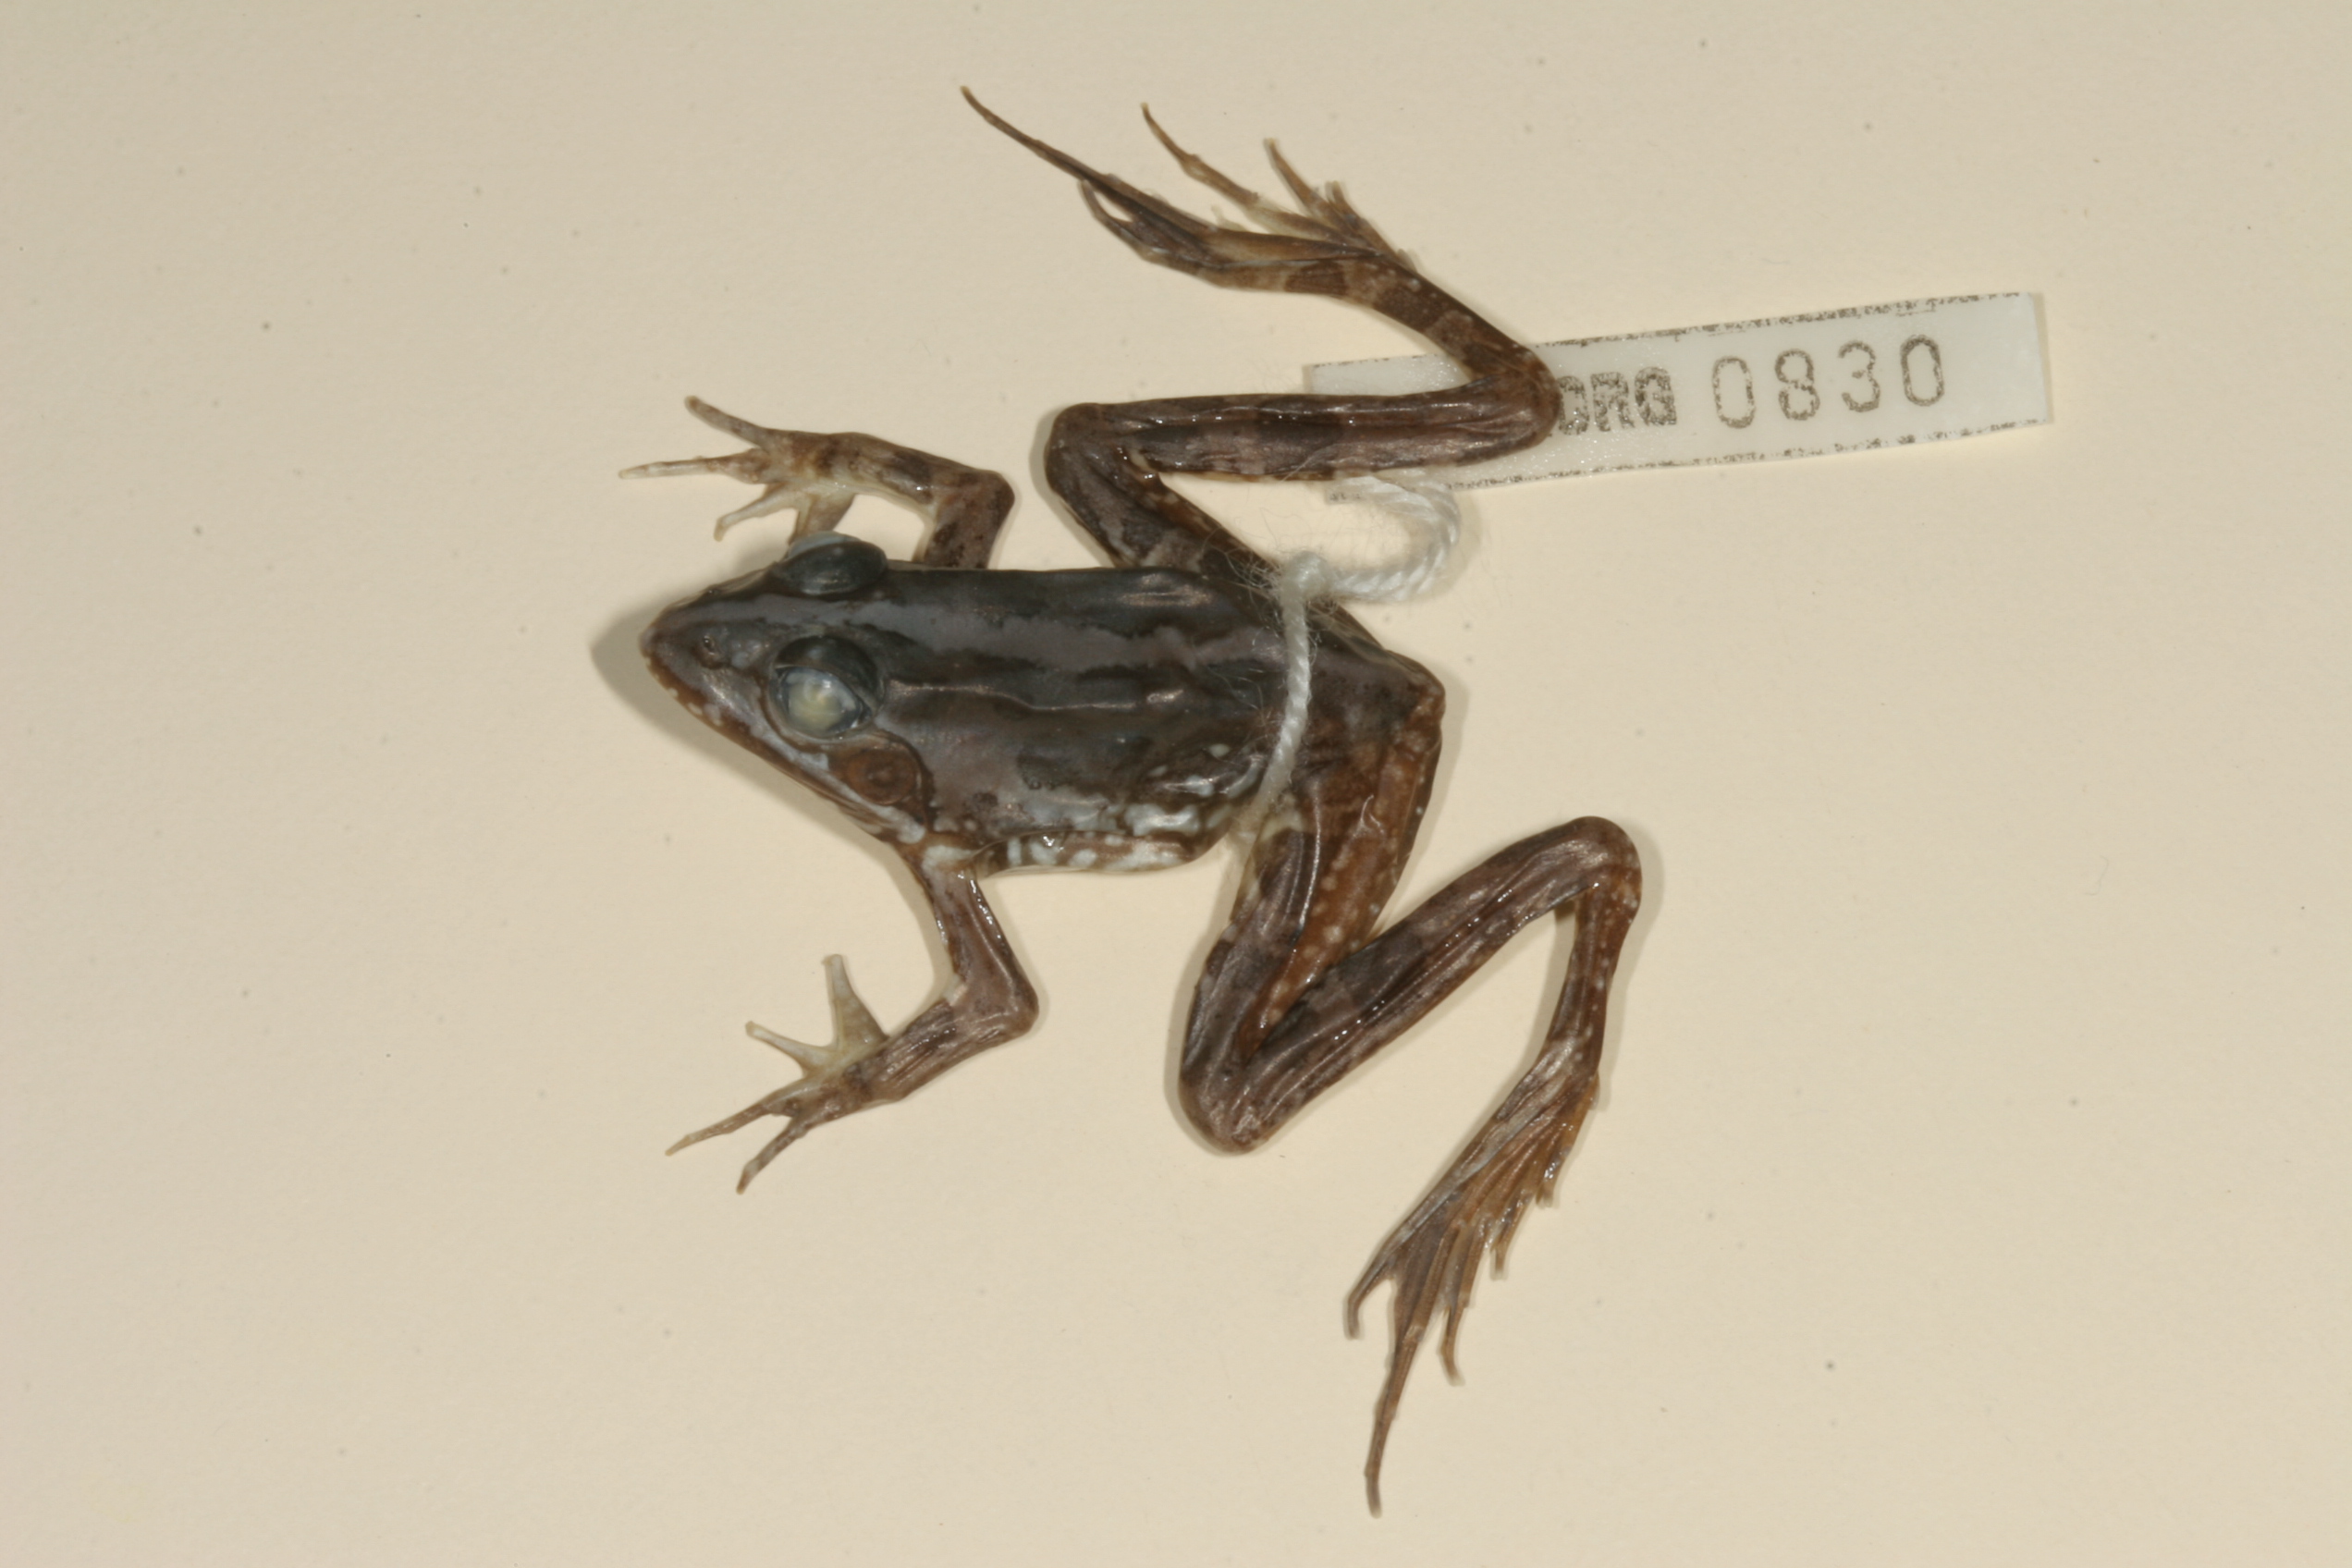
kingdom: Animalia
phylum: Chordata
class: Amphibia
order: Anura
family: Pyxicephalidae
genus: Amietia
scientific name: Amietia angolensis
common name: Dusky-throated frog
